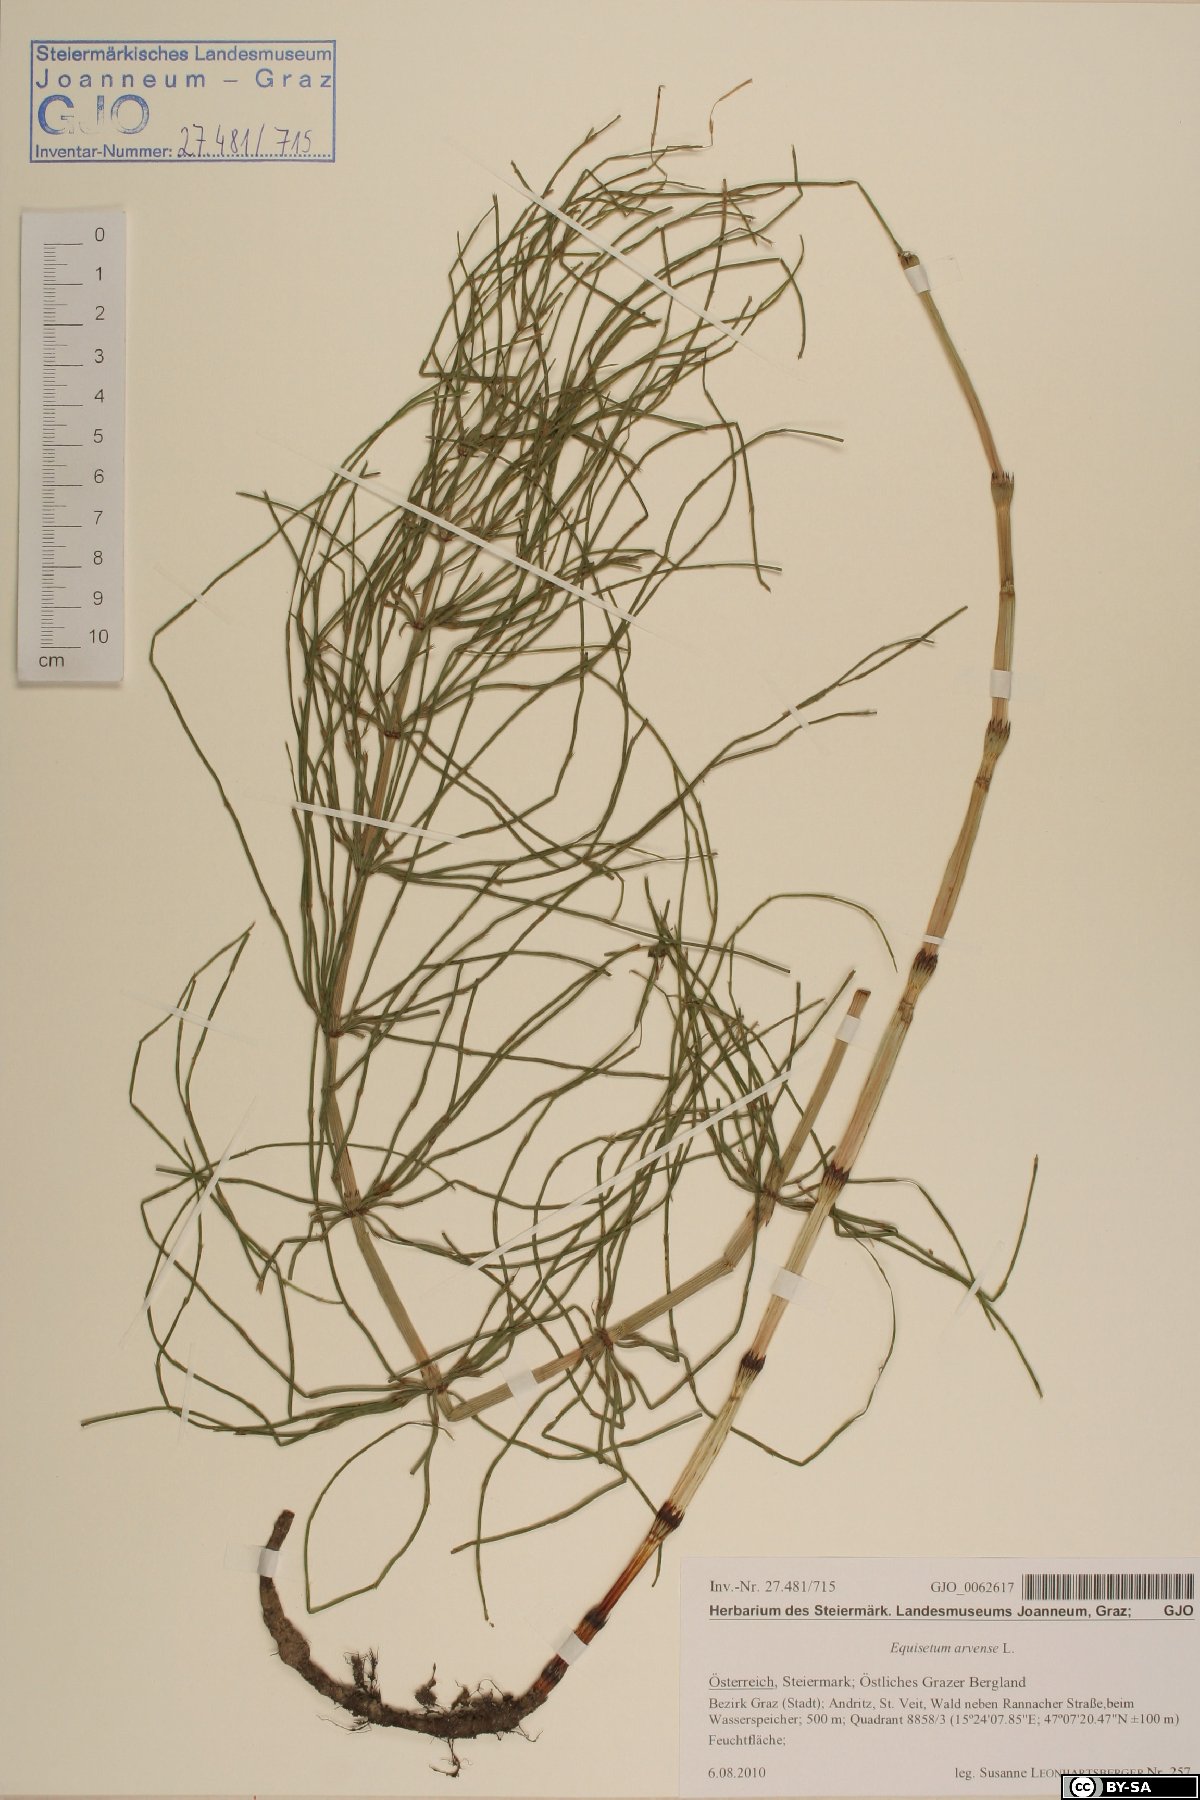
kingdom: Plantae
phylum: Tracheophyta
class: Polypodiopsida
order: Equisetales
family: Equisetaceae
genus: Equisetum
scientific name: Equisetum arvense
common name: Field horsetail
